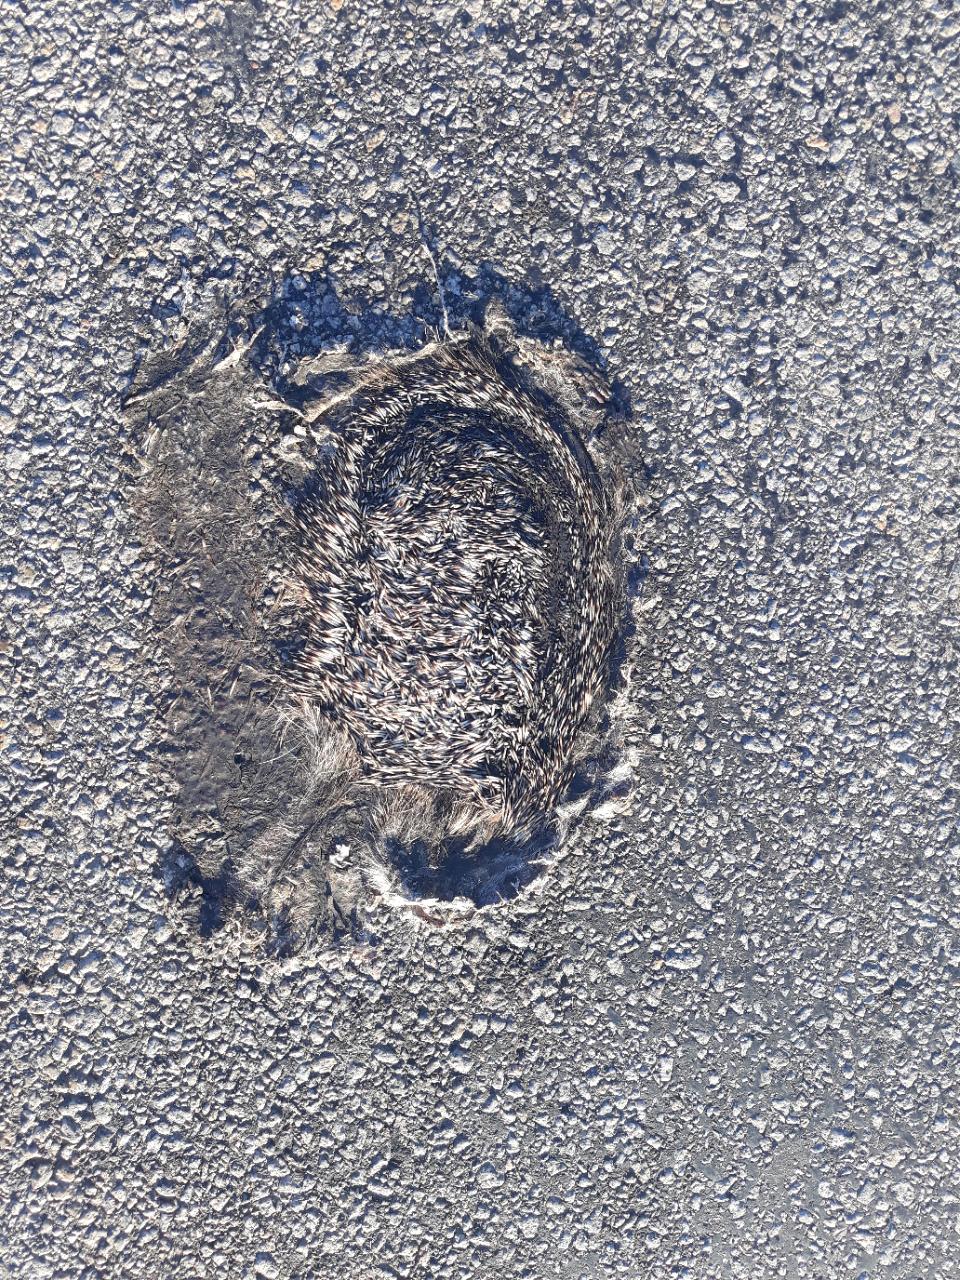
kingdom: Animalia
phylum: Chordata
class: Mammalia
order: Erinaceomorpha
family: Erinaceidae
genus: Erinaceus
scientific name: Erinaceus
